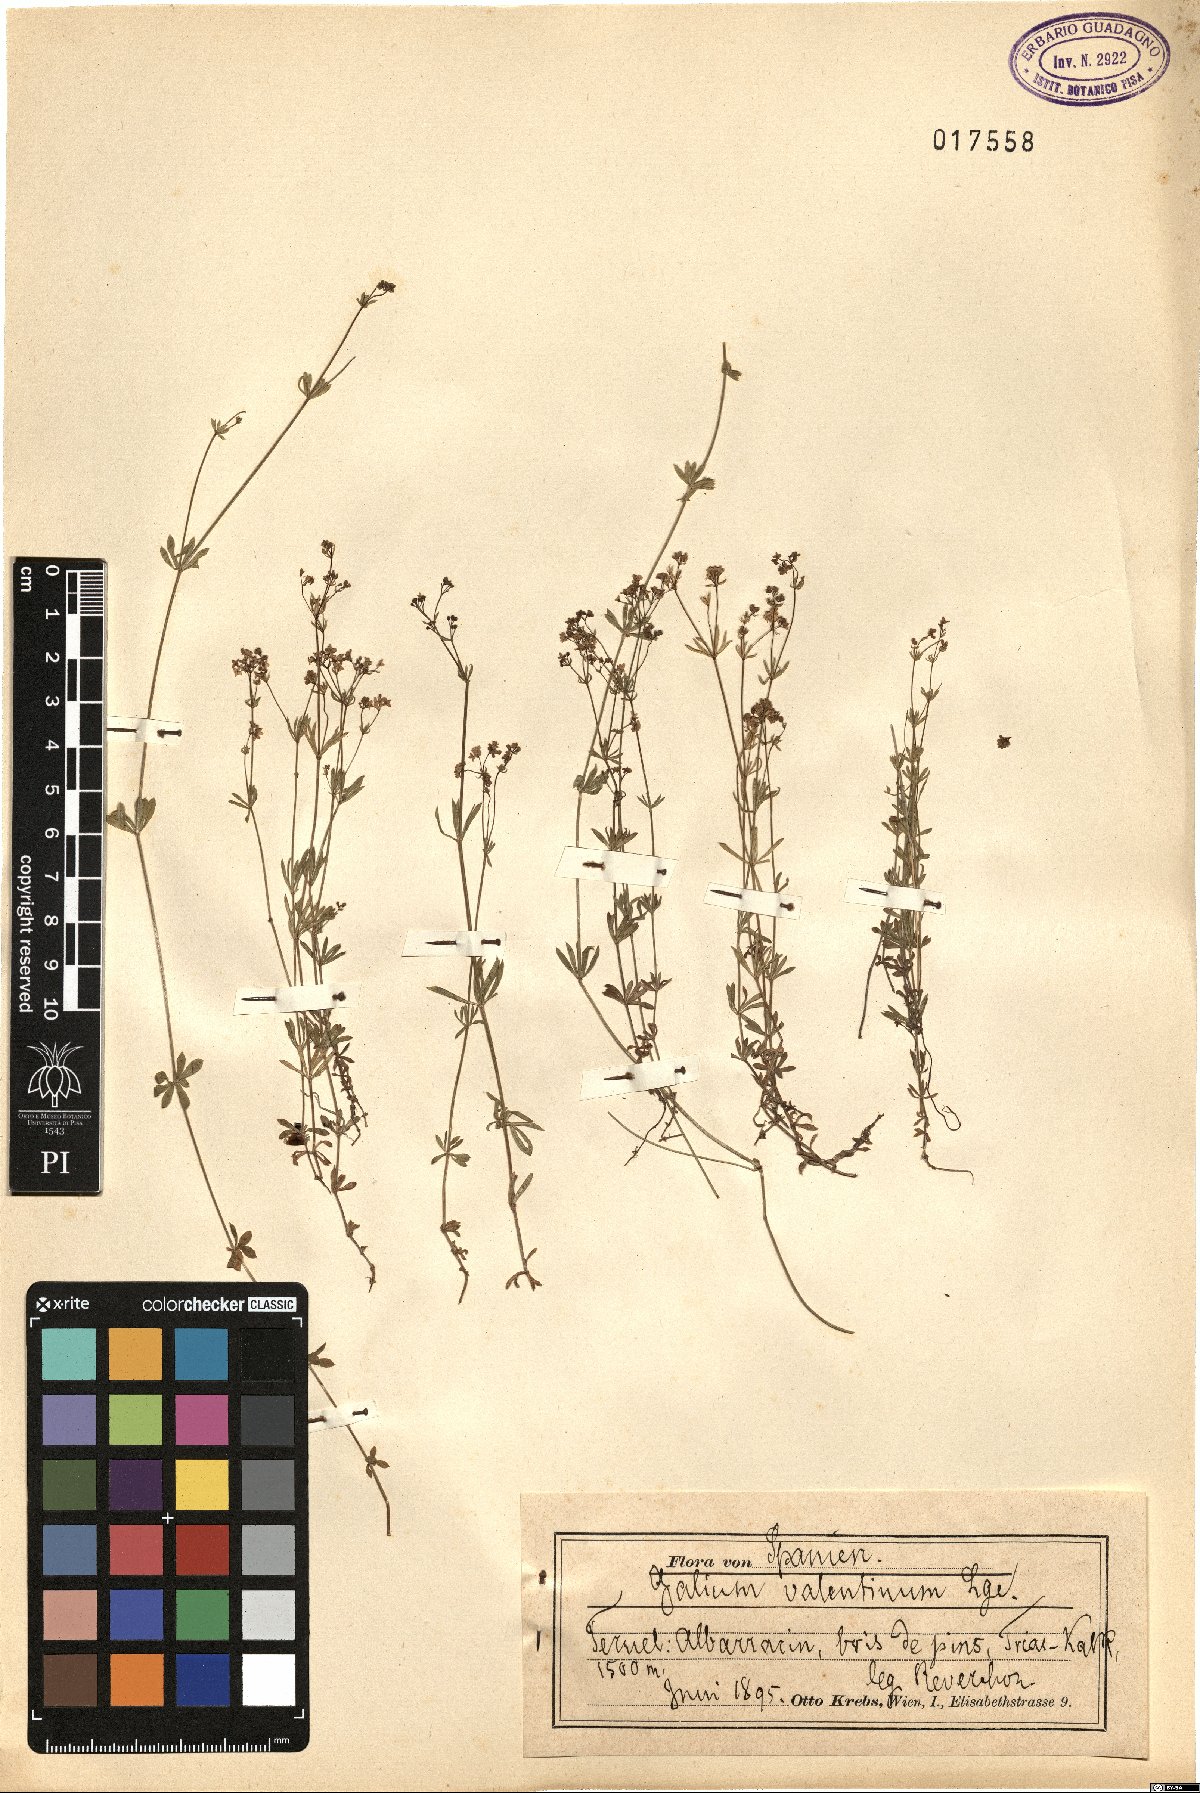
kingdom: Plantae
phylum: Tracheophyta
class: Magnoliopsida
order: Gentianales
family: Rubiaceae
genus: Galium
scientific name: Galium valentinum
